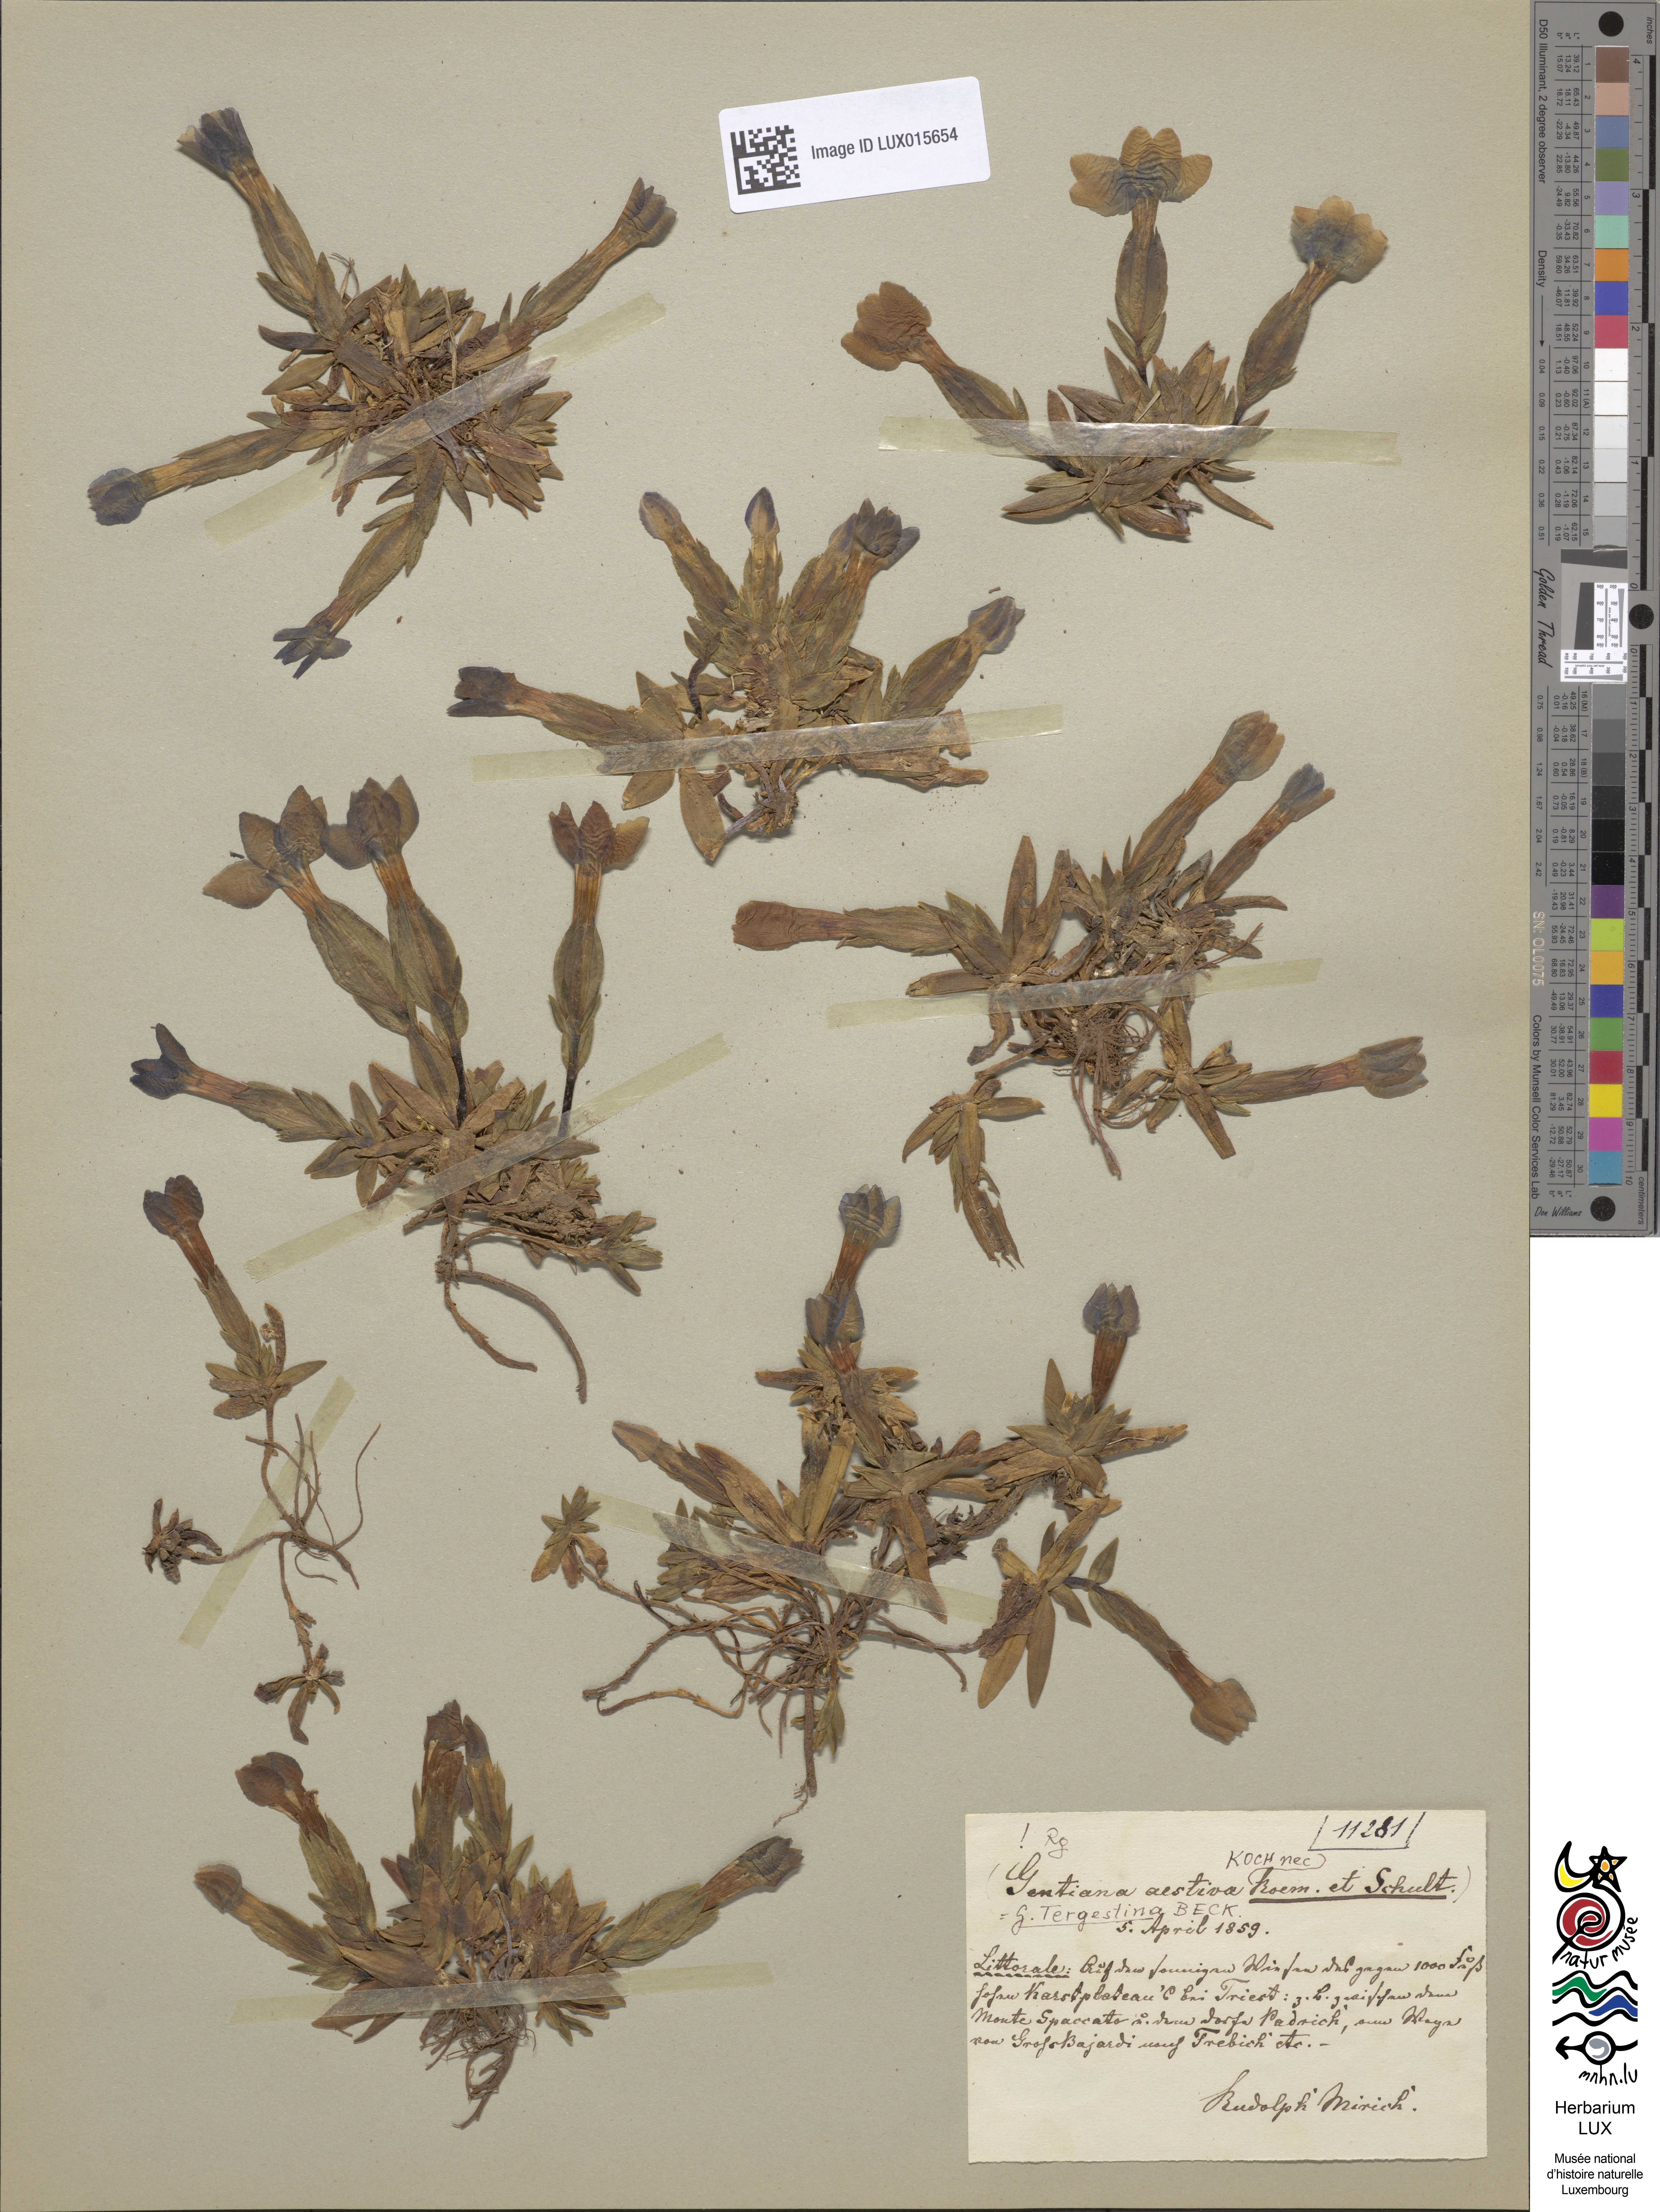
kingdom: Plantae
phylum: Tracheophyta
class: Magnoliopsida
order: Gentianales
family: Gentianaceae
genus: Gentiana
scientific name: Gentiana verna
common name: Spring gentian
